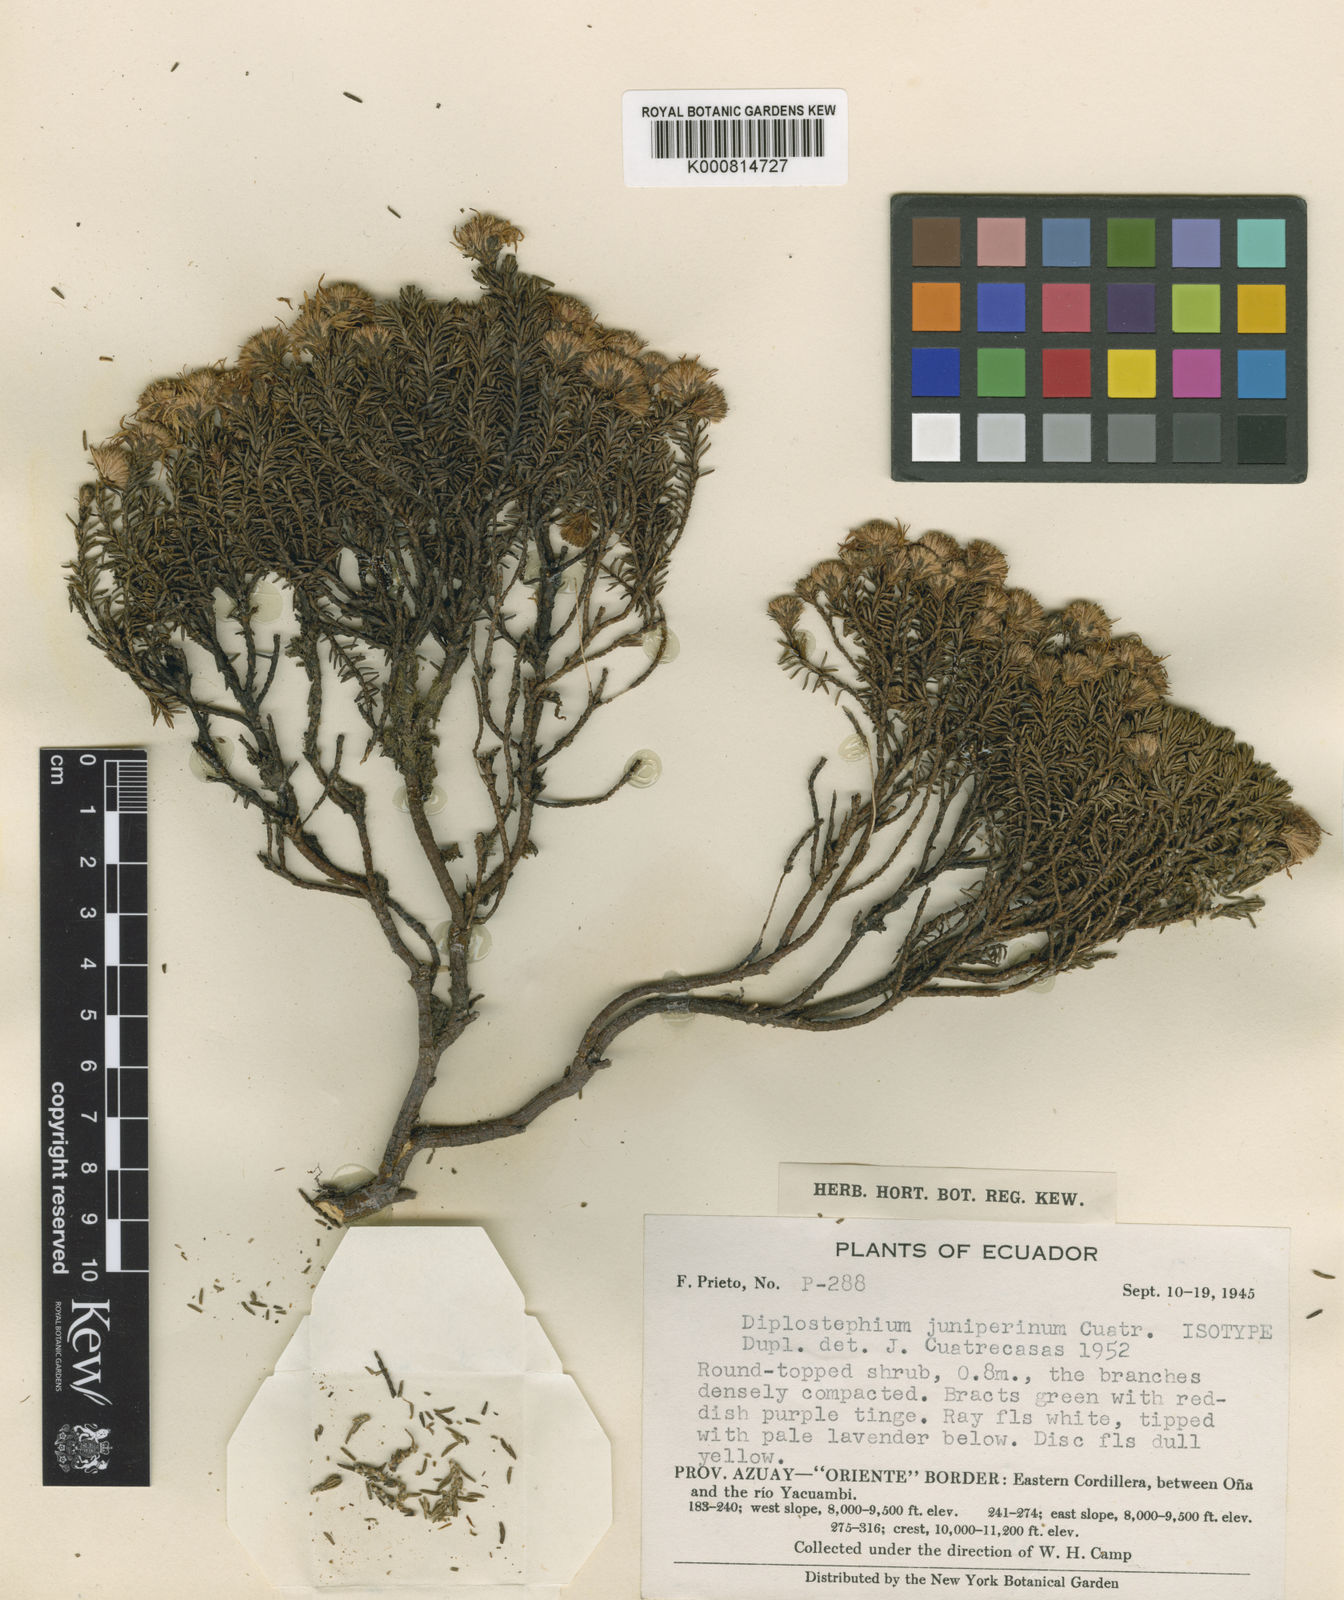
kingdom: Plantae
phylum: Tracheophyta
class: Magnoliopsida
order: Asterales
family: Asteraceae
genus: Diplostephium
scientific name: Diplostephium juniperinum
